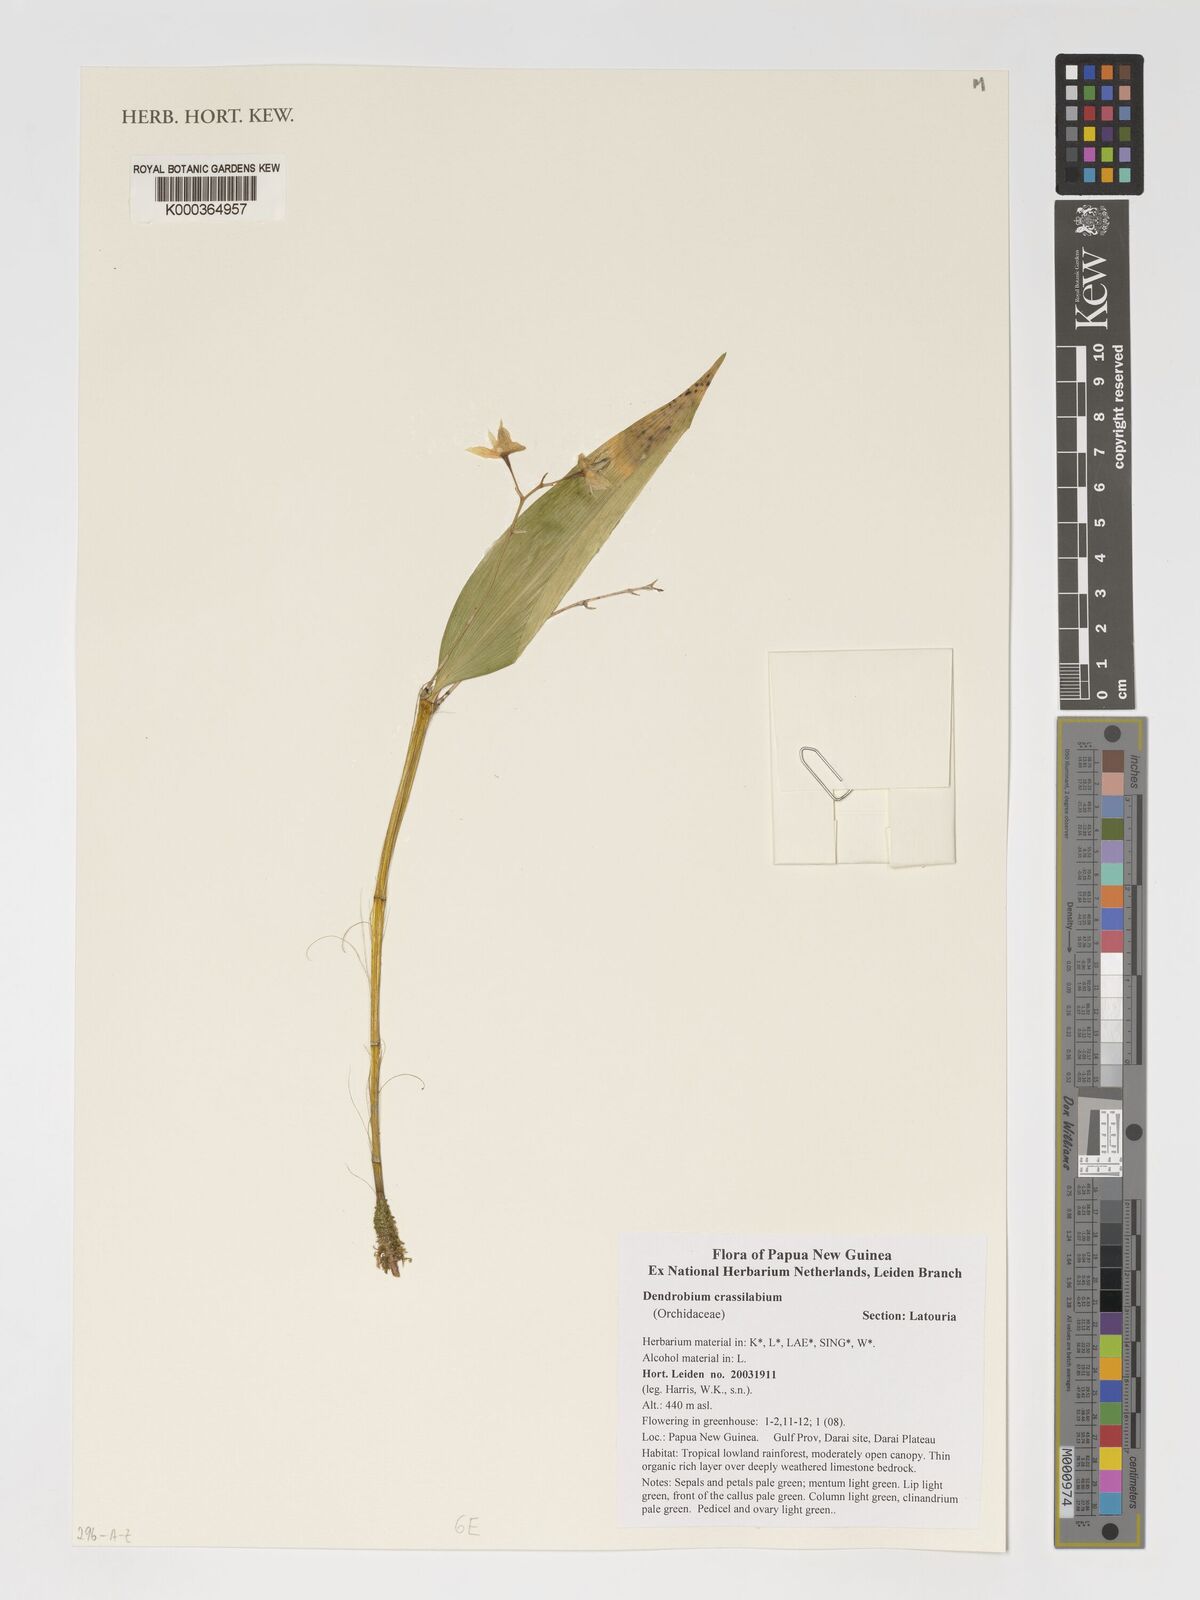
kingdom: Plantae
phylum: Tracheophyta
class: Liliopsida
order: Asparagales
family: Orchidaceae
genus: Dendrobium
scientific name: Dendrobium crassilabium
